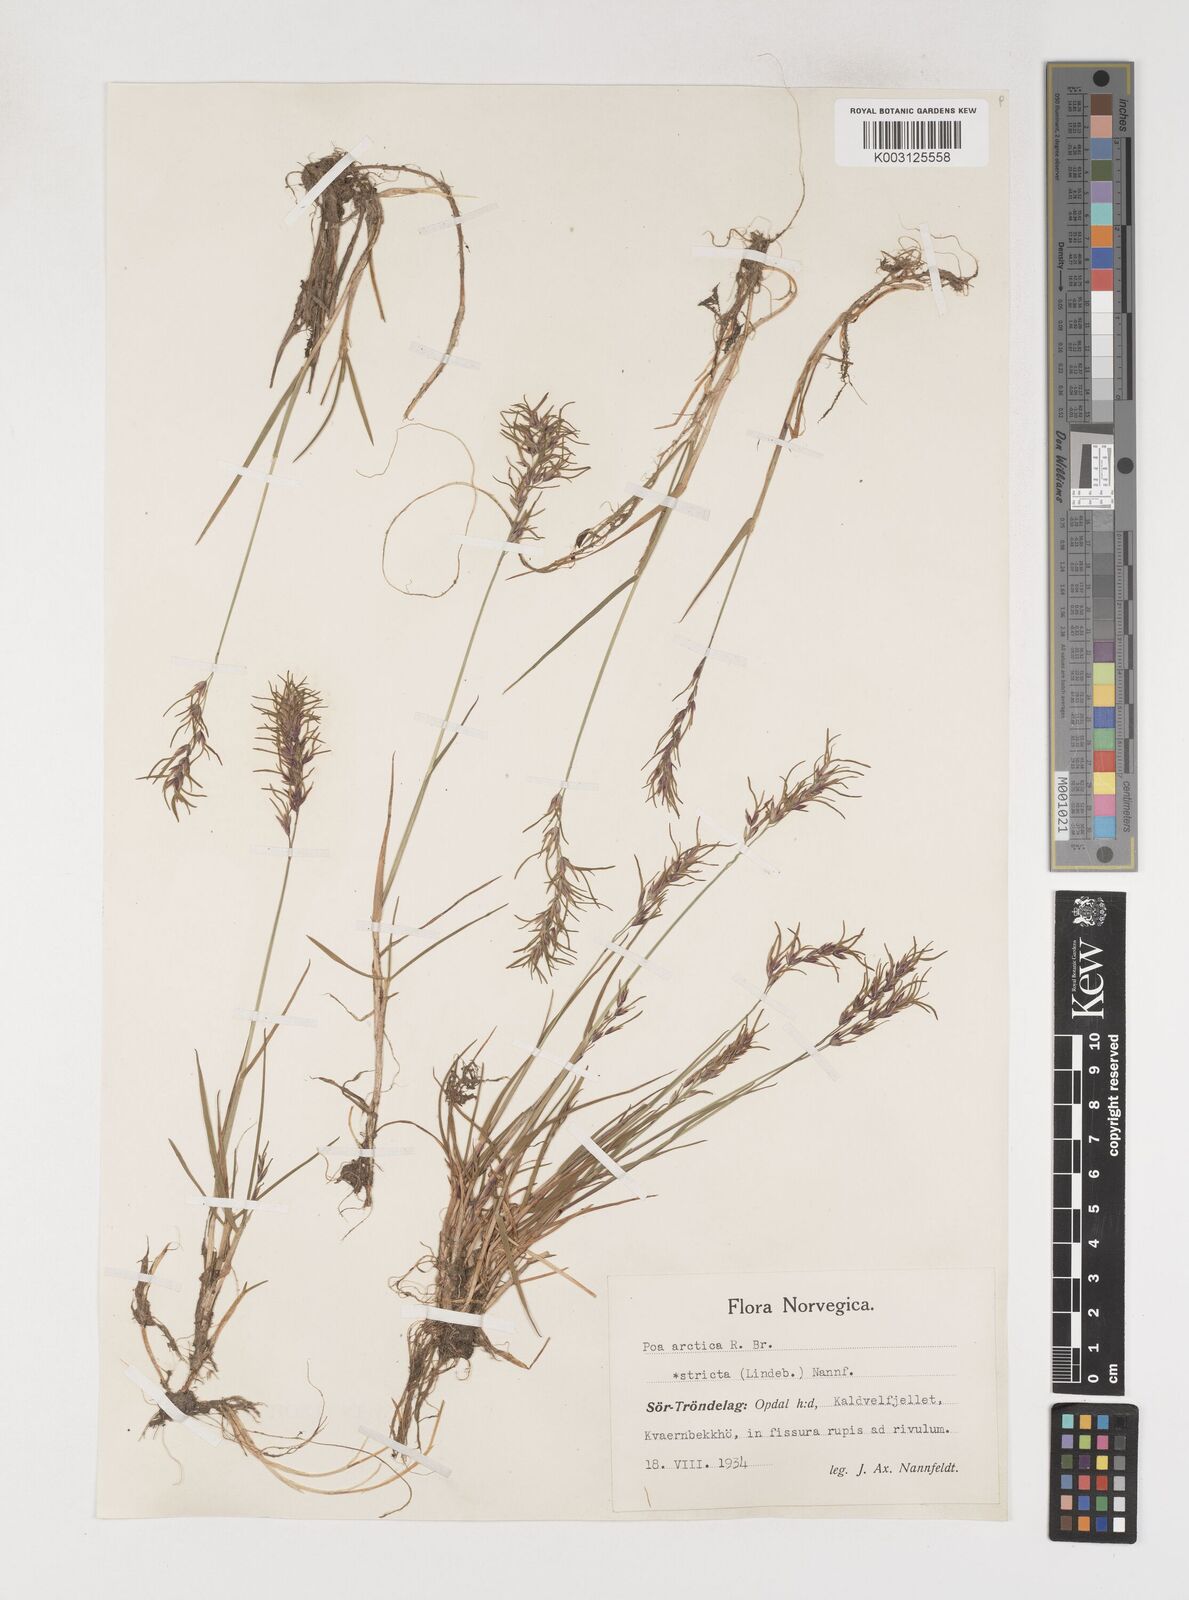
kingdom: Plantae
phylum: Tracheophyta
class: Liliopsida
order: Poales
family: Poaceae
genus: Poa
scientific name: Poa arctica
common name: Arctic bluegrass
